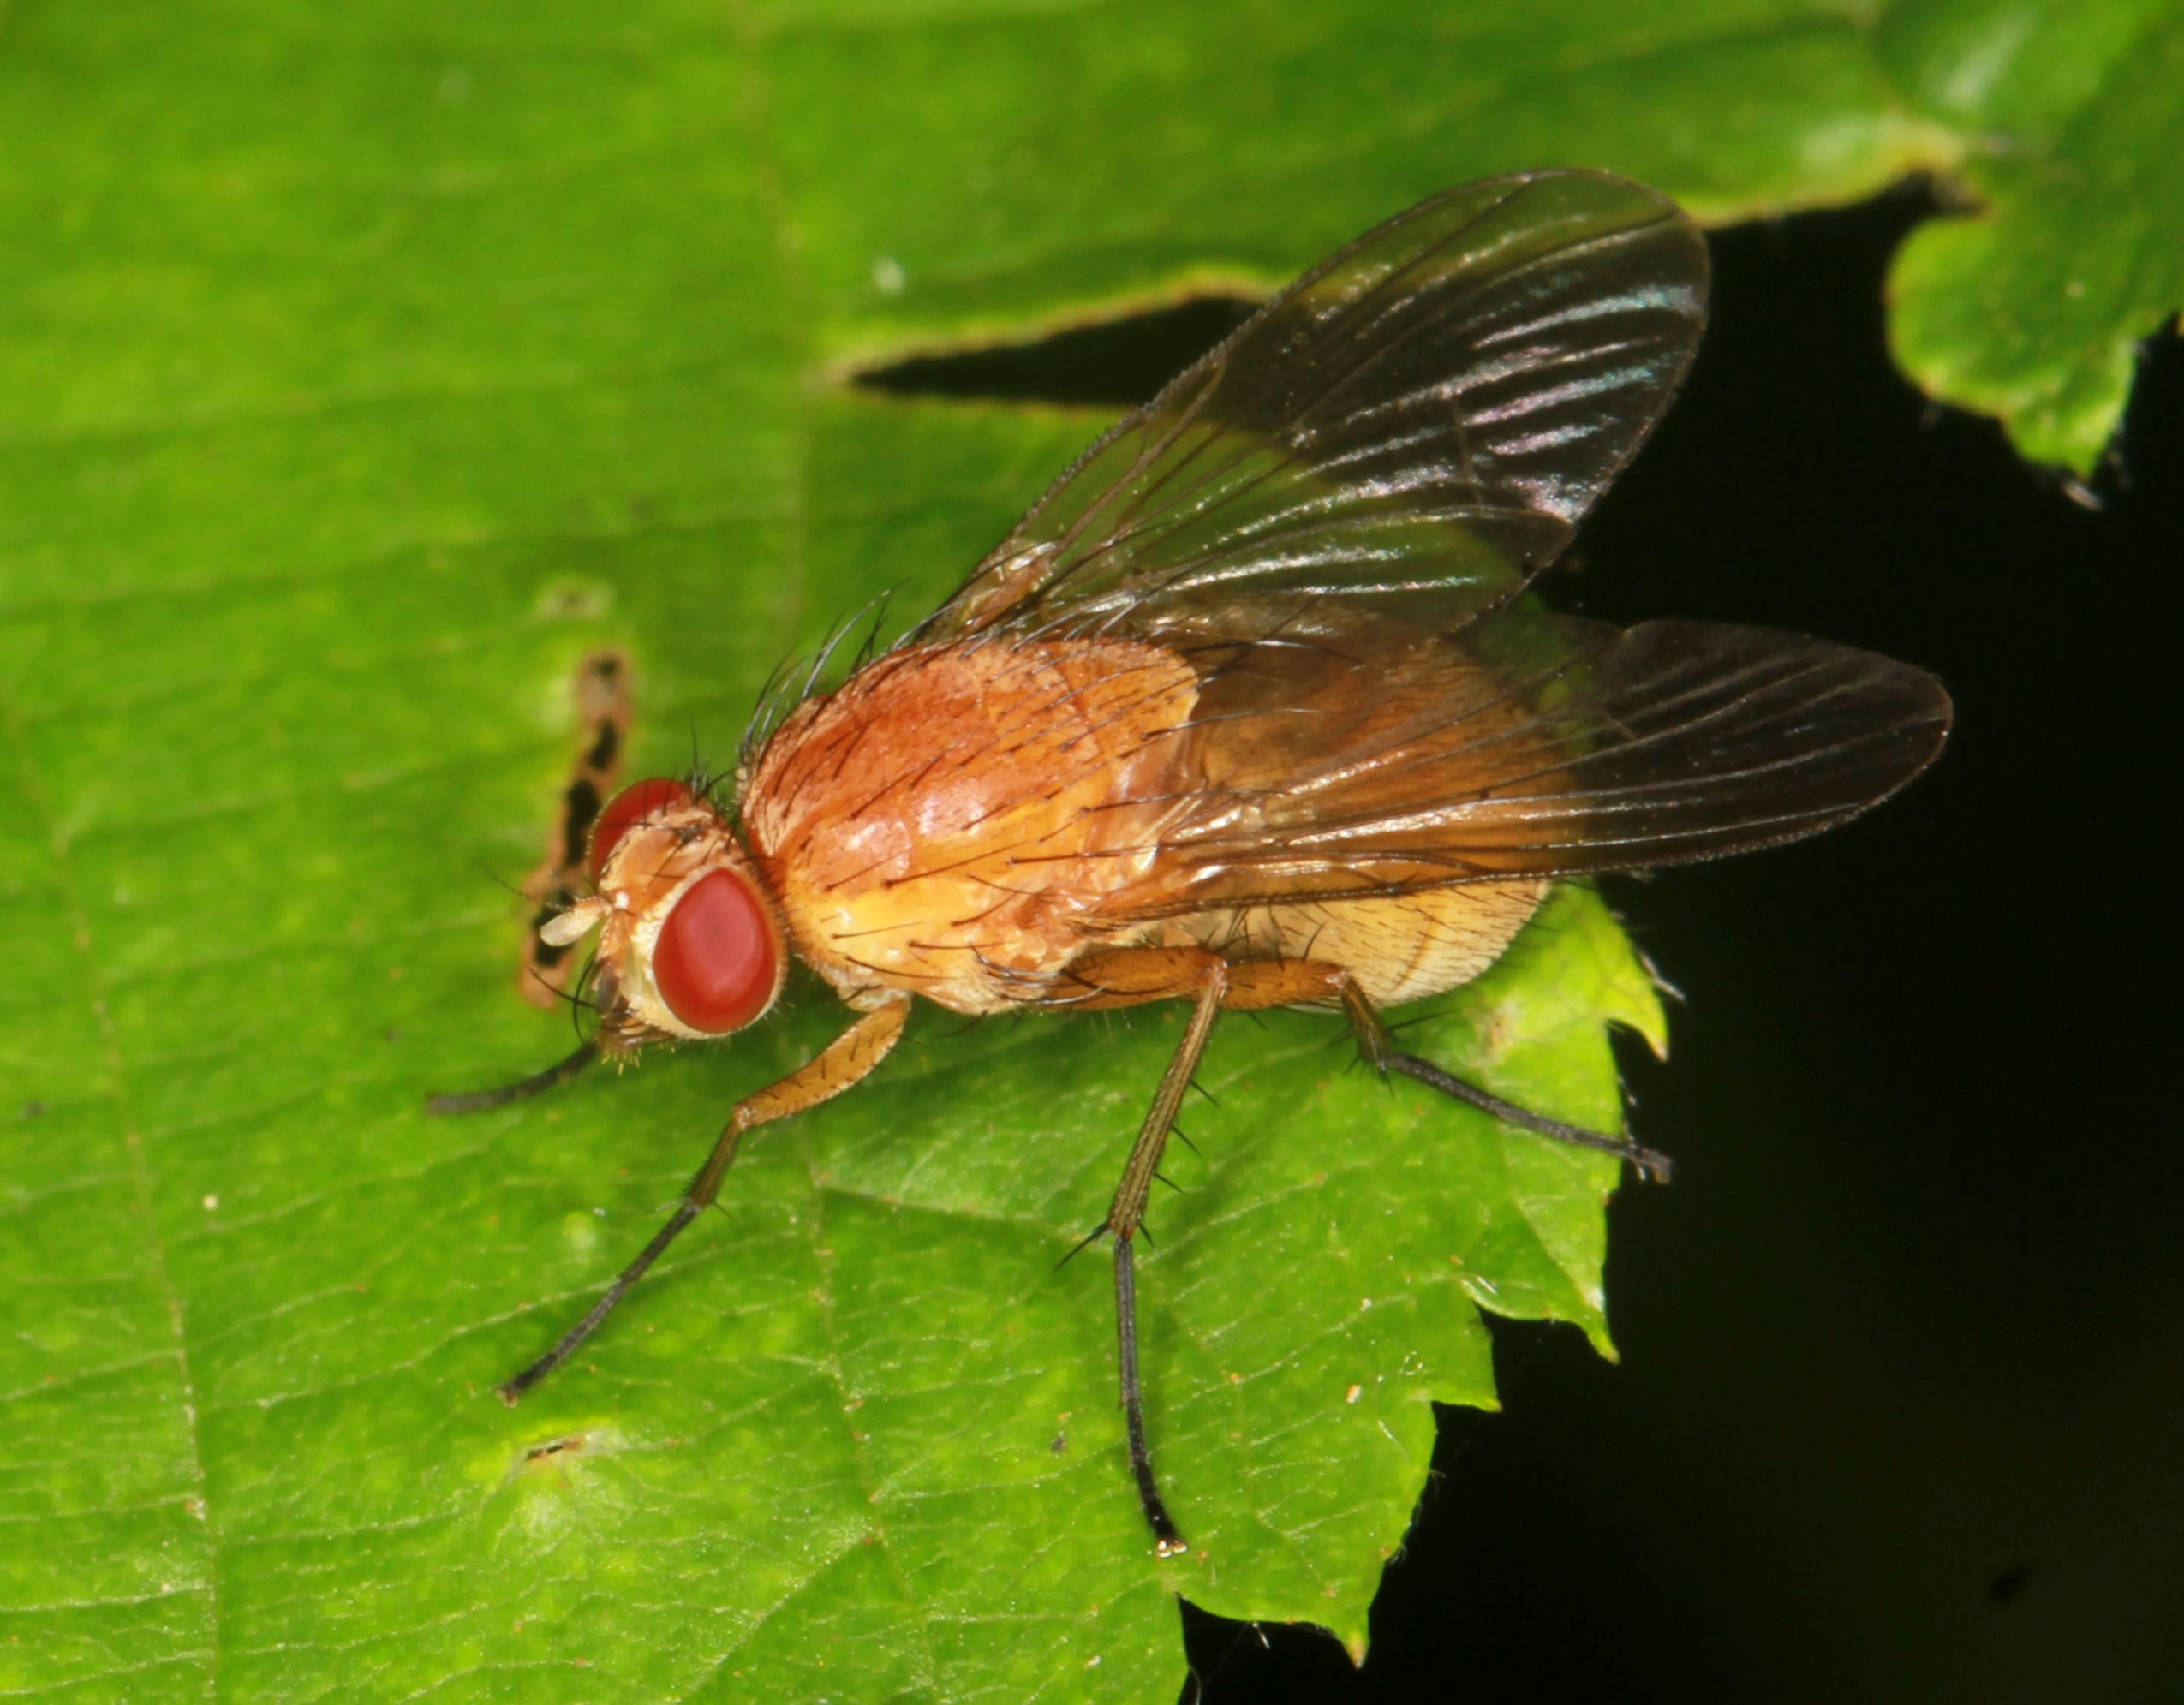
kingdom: Animalia
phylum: Arthropoda
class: Insecta
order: Diptera
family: Muscidae
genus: Phaonia
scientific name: Phaonia pallida
